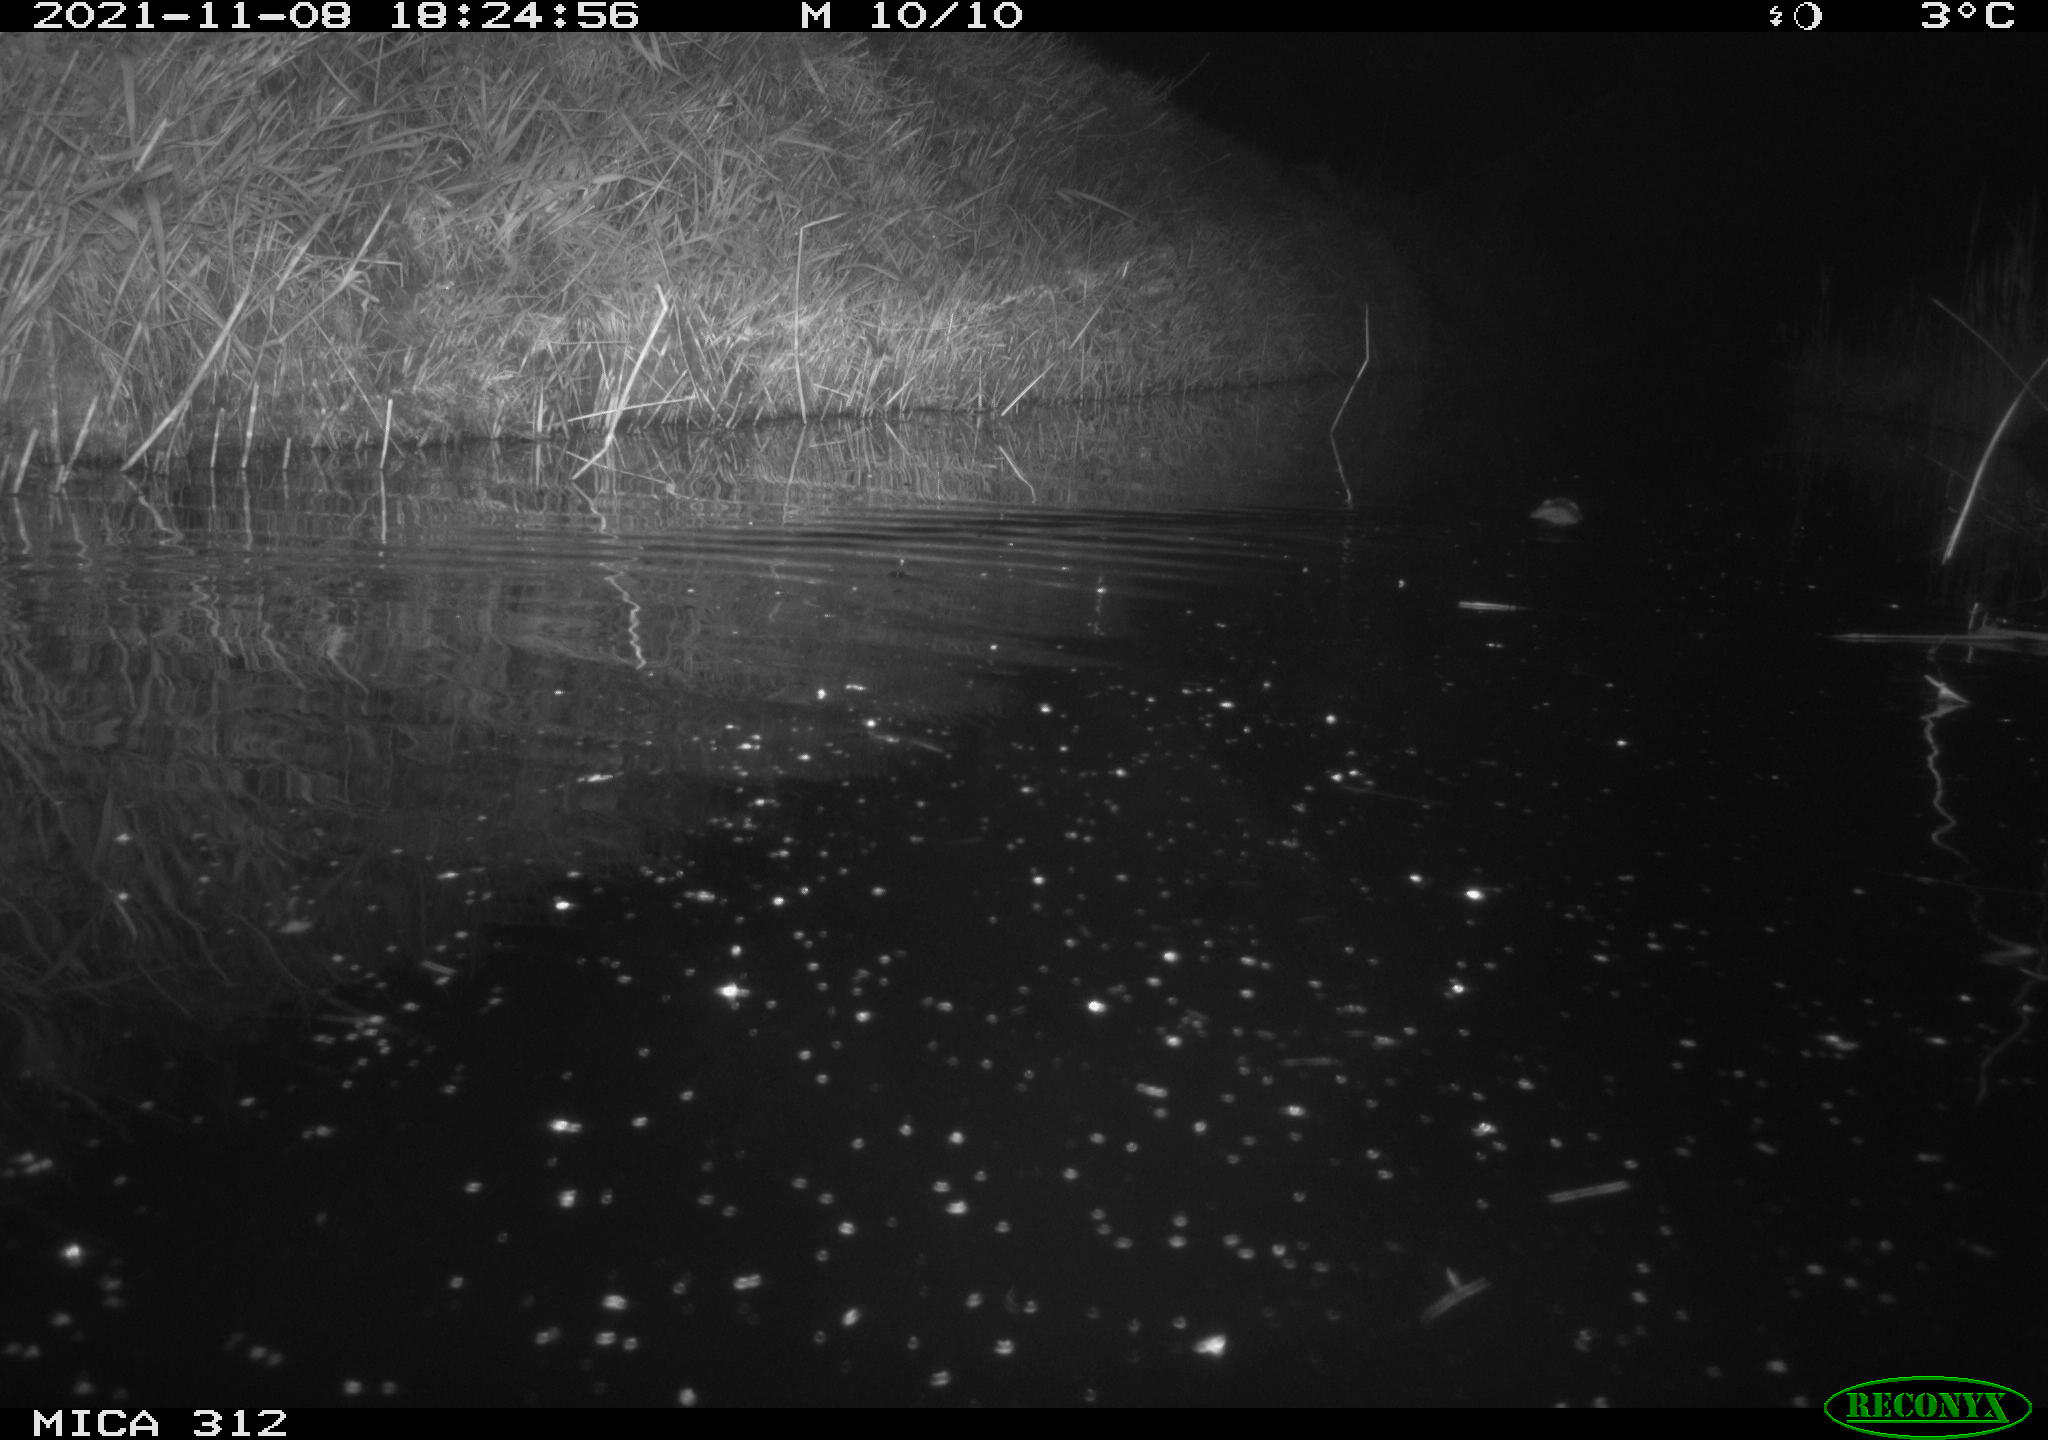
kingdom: Animalia
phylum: Chordata
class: Mammalia
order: Rodentia
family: Muridae
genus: Rattus
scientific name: Rattus norvegicus
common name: Brown rat
